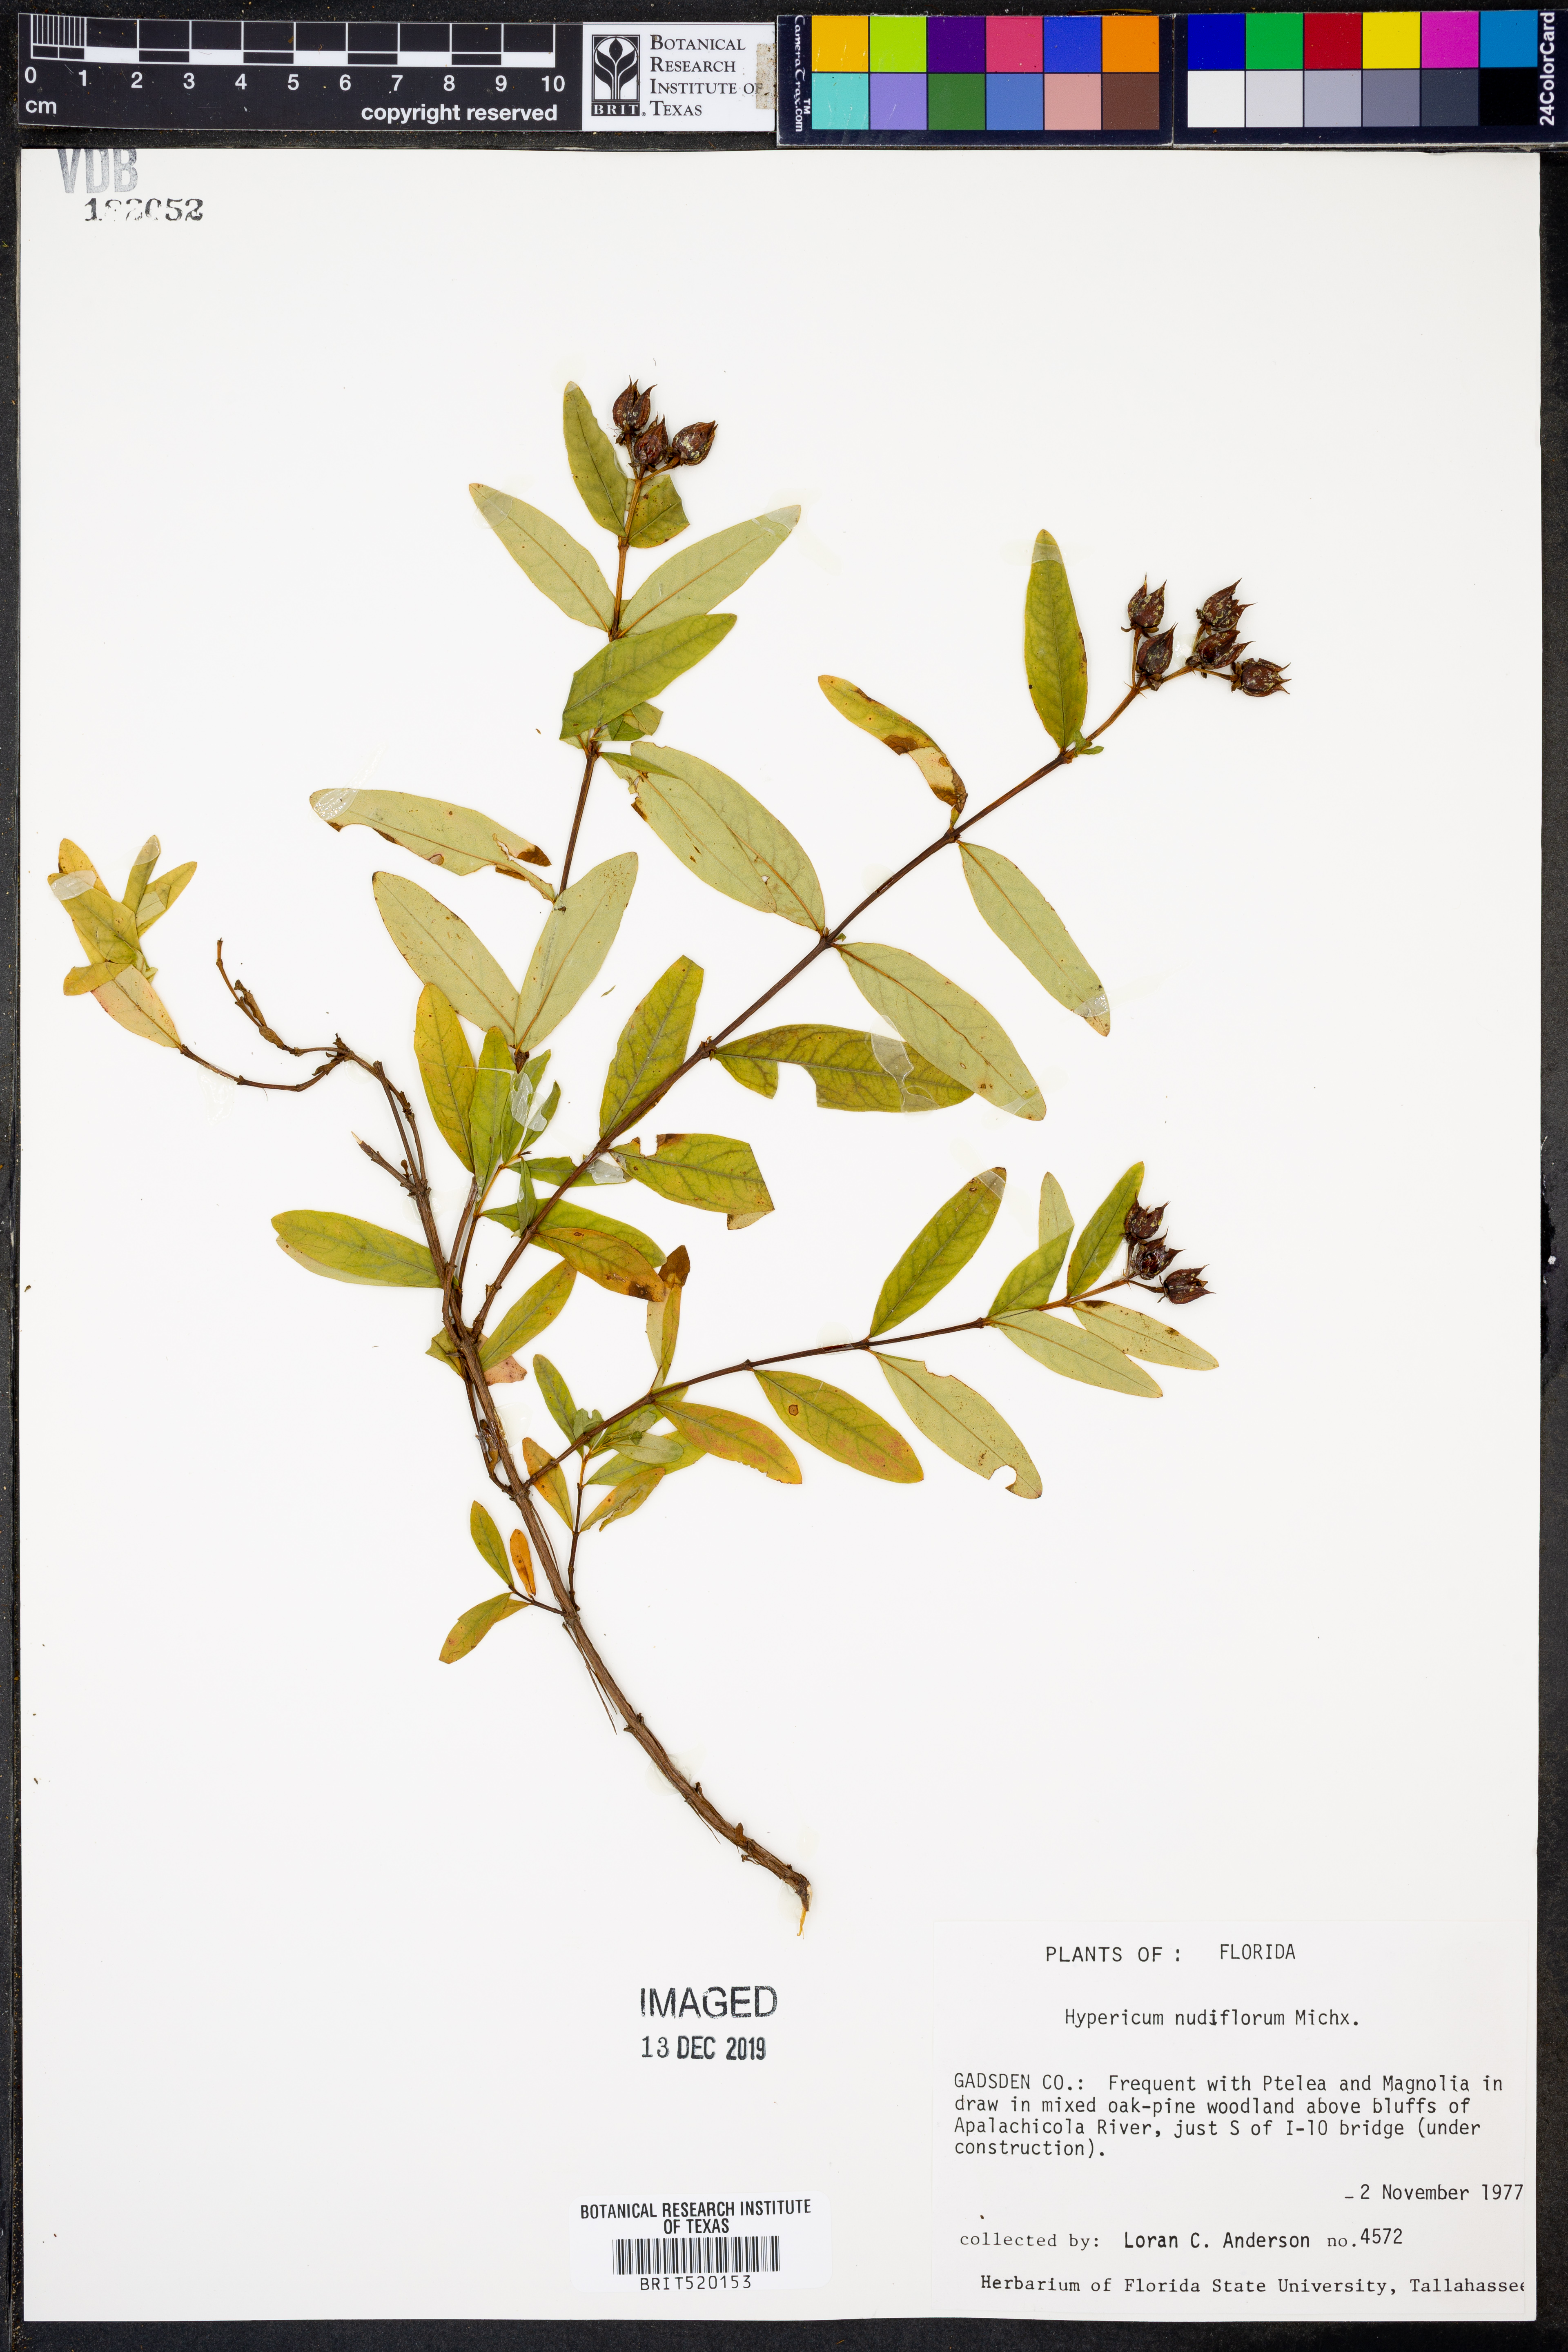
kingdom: Plantae
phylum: Tracheophyta
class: Magnoliopsida
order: Malpighiales
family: Hypericaceae
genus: Hypericum
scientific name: Hypericum nudiflorum
